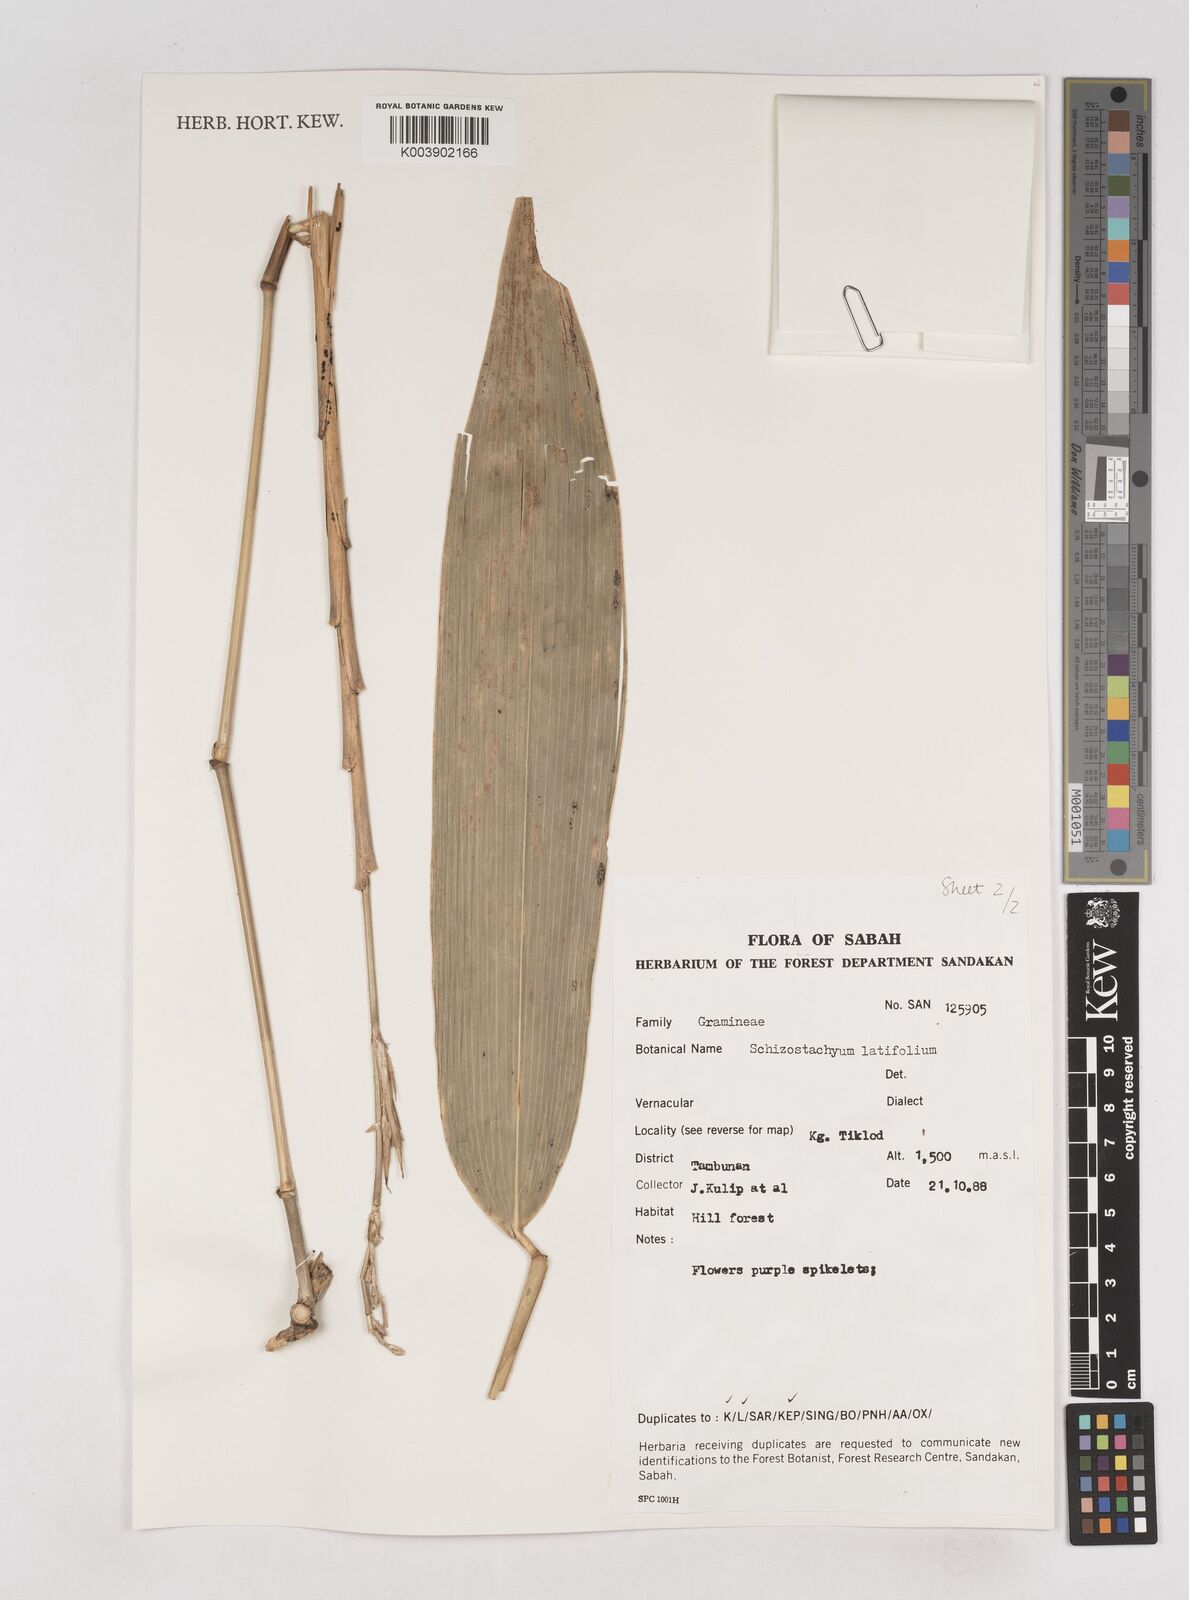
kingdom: Plantae
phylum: Tracheophyta
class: Liliopsida
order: Poales
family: Poaceae
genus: Schizostachyum
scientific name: Schizostachyum
